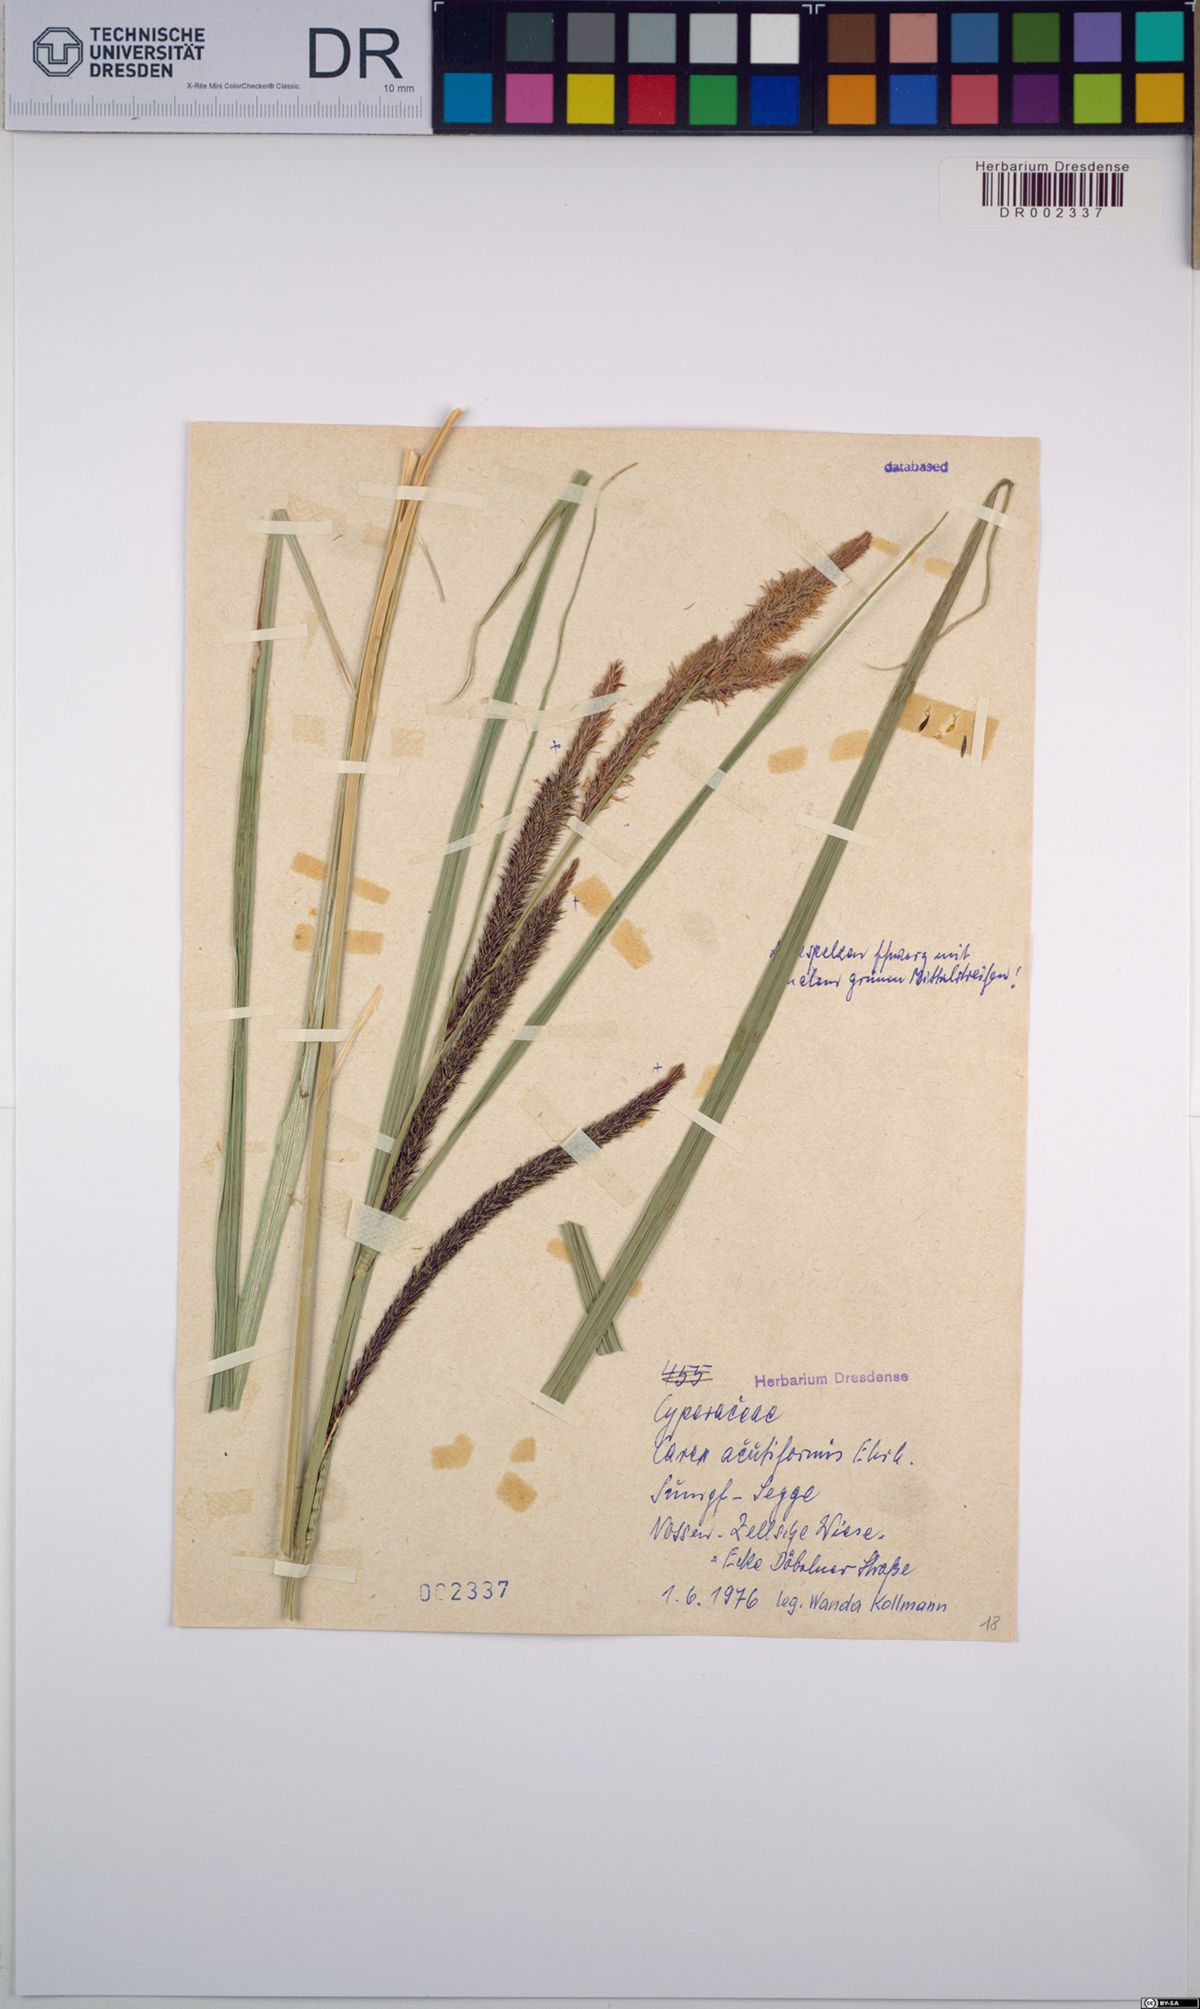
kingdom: Plantae
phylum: Tracheophyta
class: Liliopsida
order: Poales
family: Cyperaceae
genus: Carex
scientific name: Carex acutiformis
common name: Lesser pond-sedge
